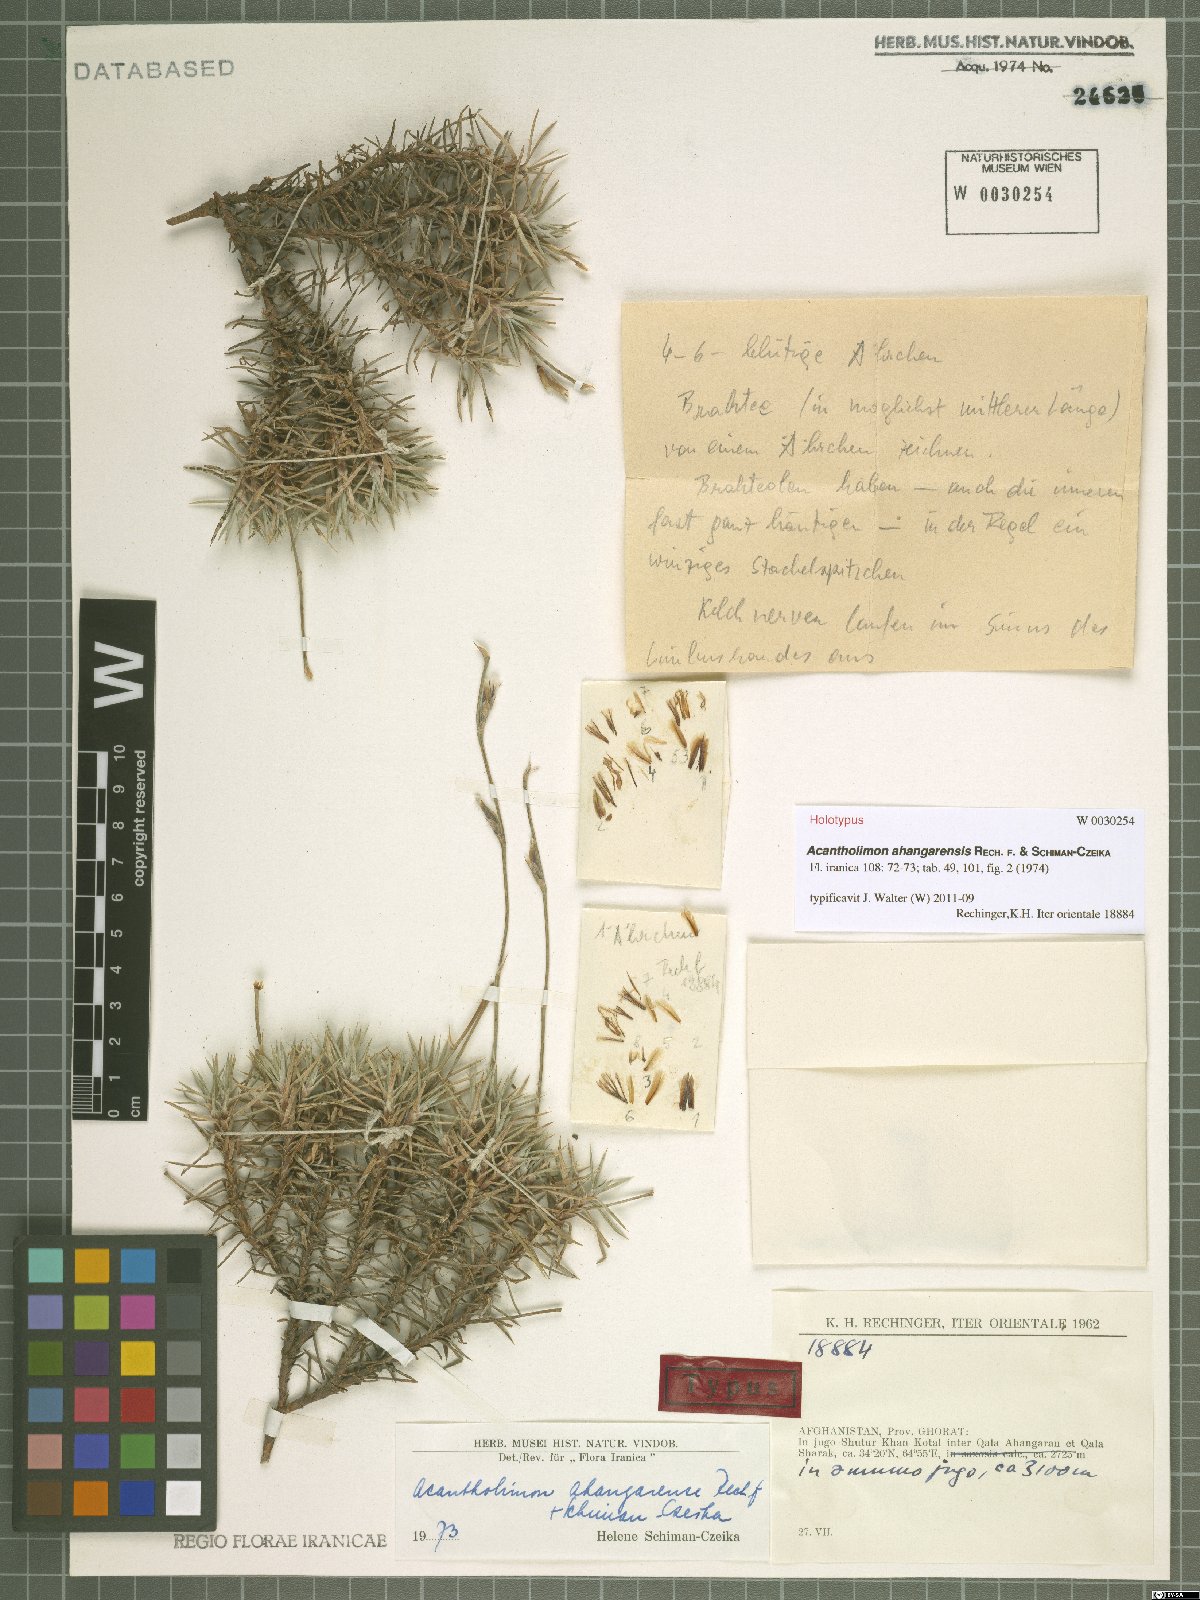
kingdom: Plantae
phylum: Tracheophyta
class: Magnoliopsida
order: Caryophyllales
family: Plumbaginaceae
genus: Acantholimon
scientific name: Acantholimon ahangarensis
